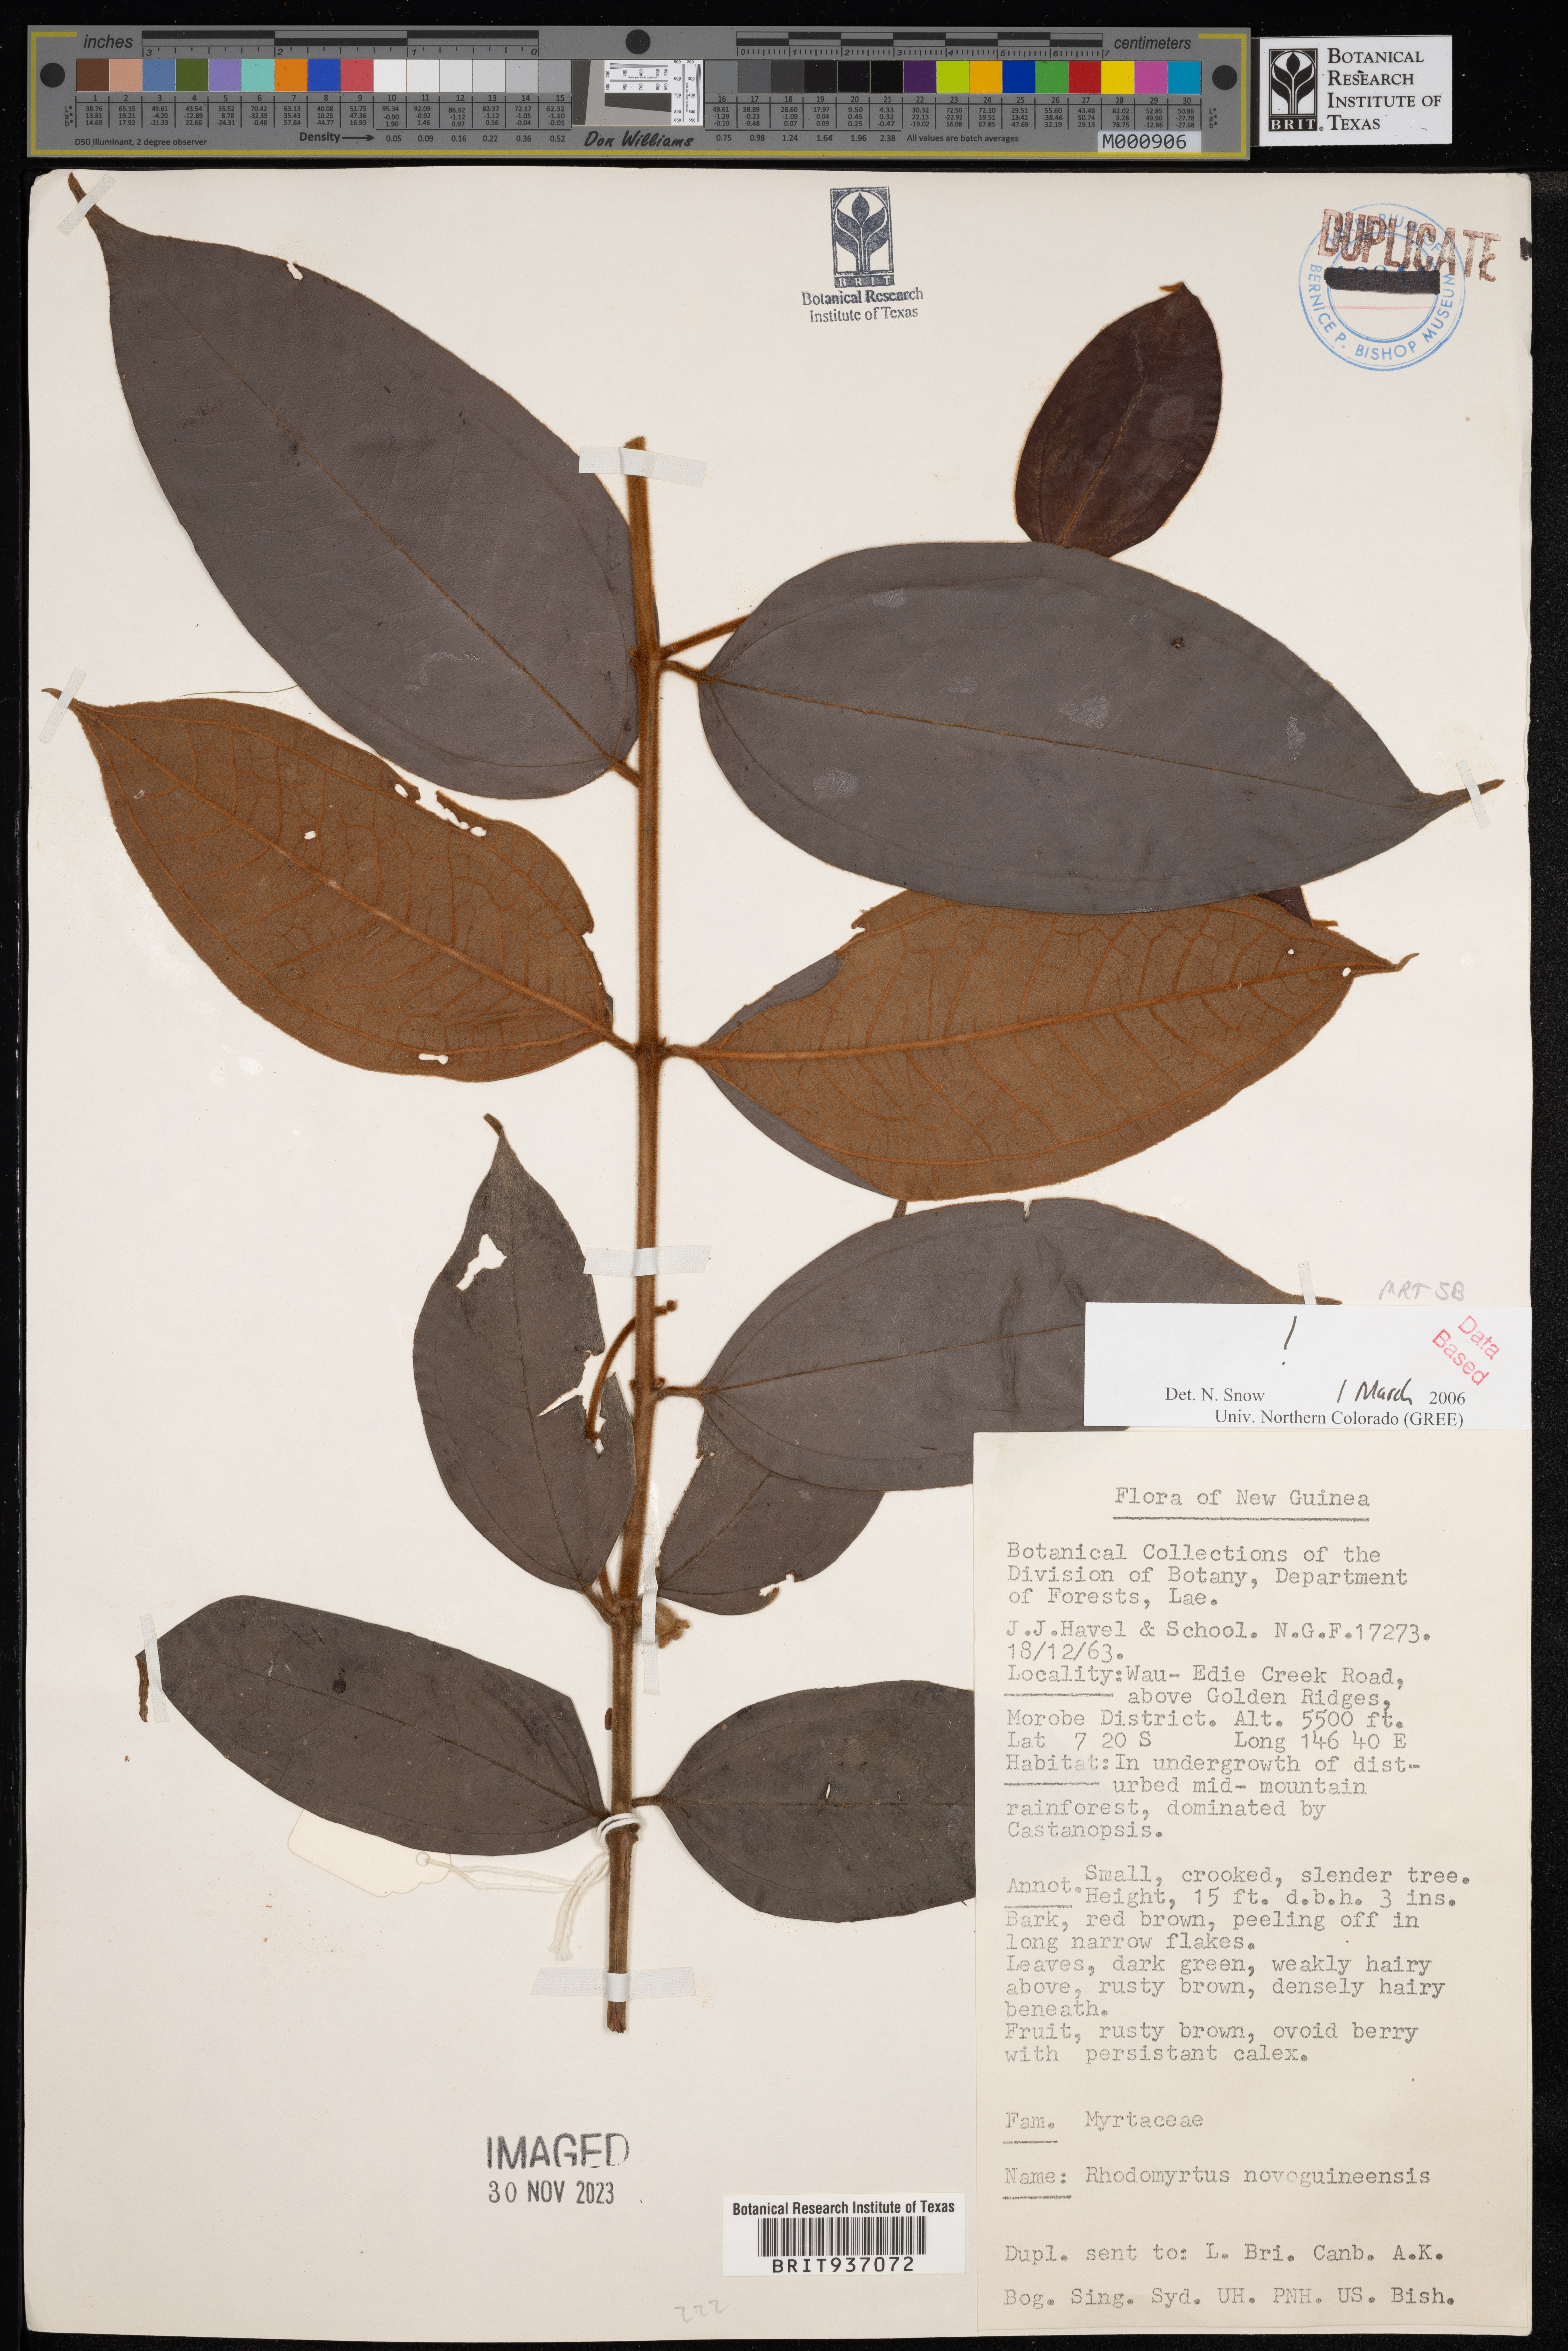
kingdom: Plantae
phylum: Tracheophyta
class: Magnoliopsida
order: Myrtales
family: Myrtaceae
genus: Rhodomyrtus
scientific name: Rhodomyrtus
